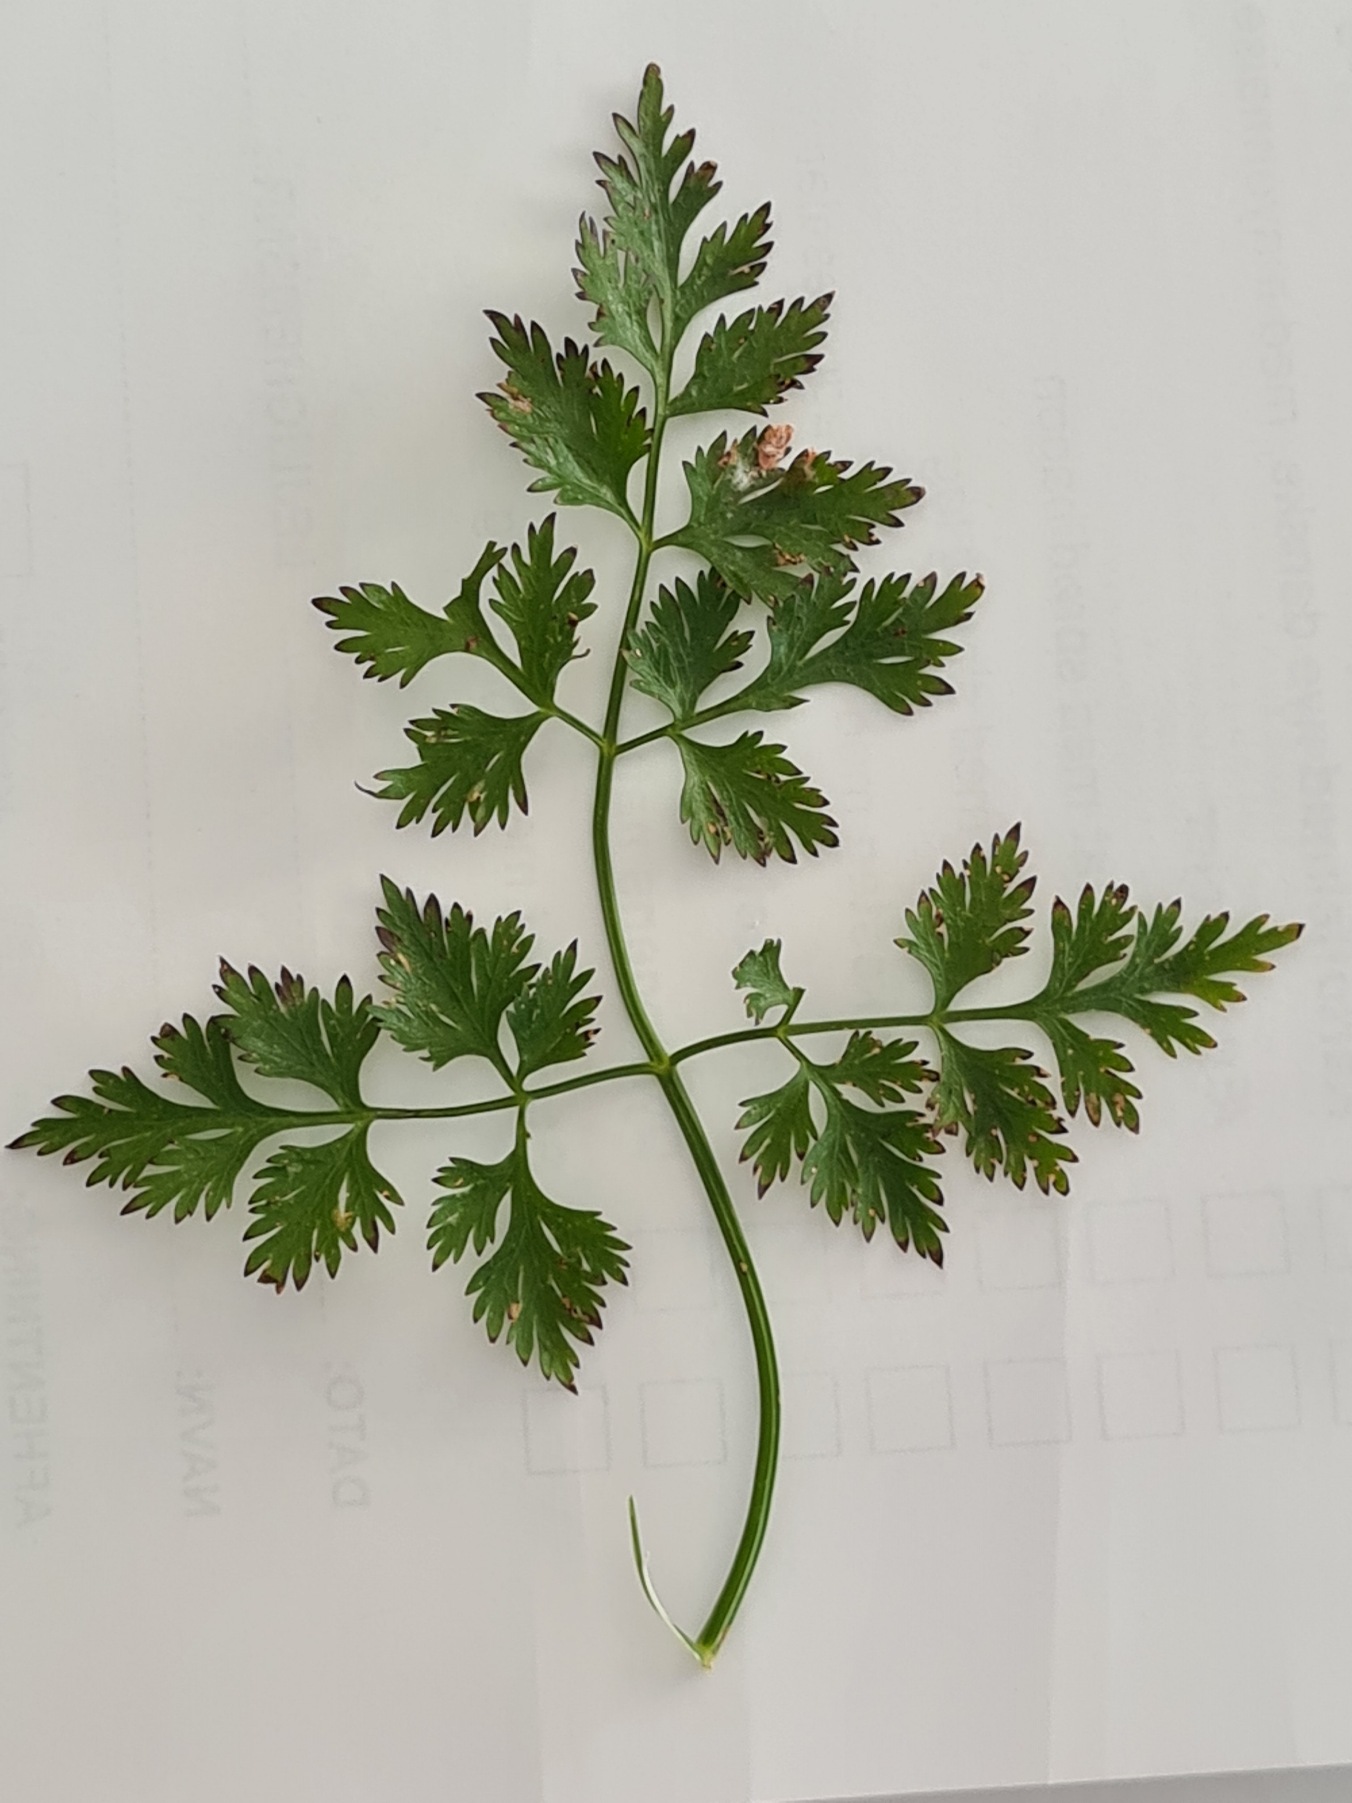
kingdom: Plantae
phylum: Tracheophyta
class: Magnoliopsida
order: Apiales
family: Apiaceae
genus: Aethusa
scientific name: Aethusa cynapium
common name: Hundepersille
